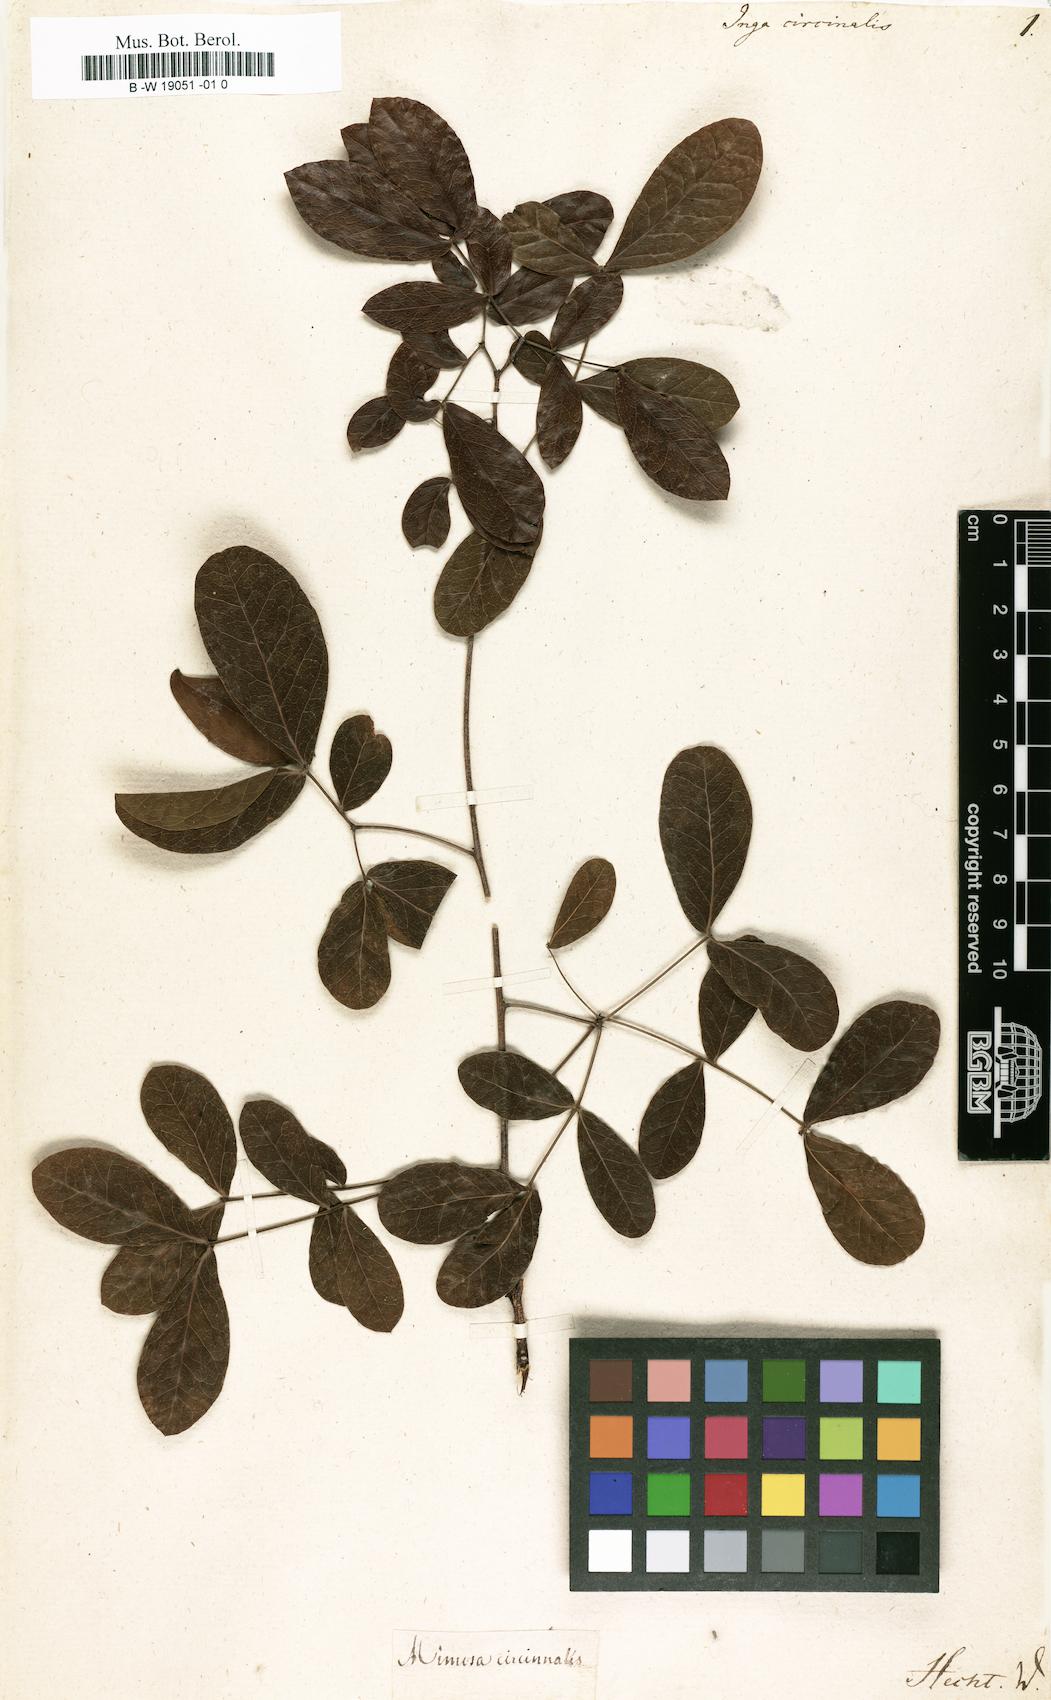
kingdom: Plantae
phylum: Tracheophyta
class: Magnoliopsida
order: Fabales
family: Fabaceae
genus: Pithecellobium
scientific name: Pithecellobium circinale
